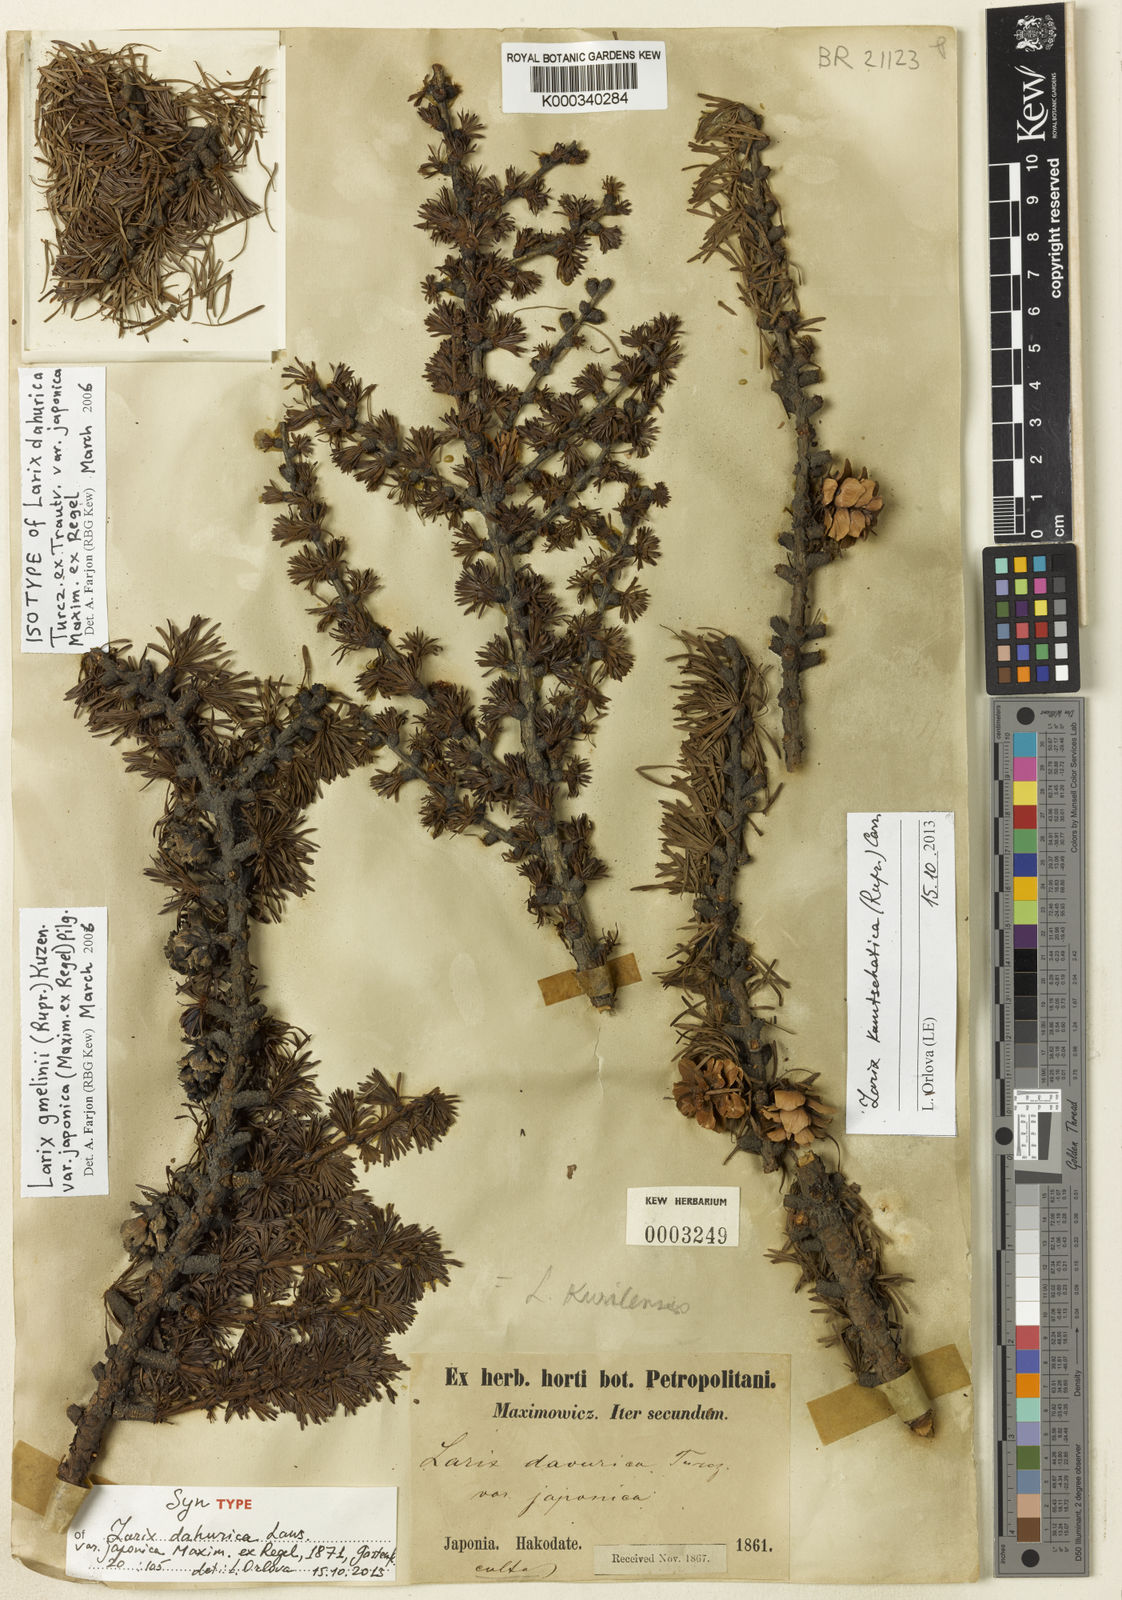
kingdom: Plantae
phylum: Tracheophyta
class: Pinopsida
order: Pinales
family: Pinaceae
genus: Larix
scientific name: Larix gmelinii
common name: Dahurian larch
